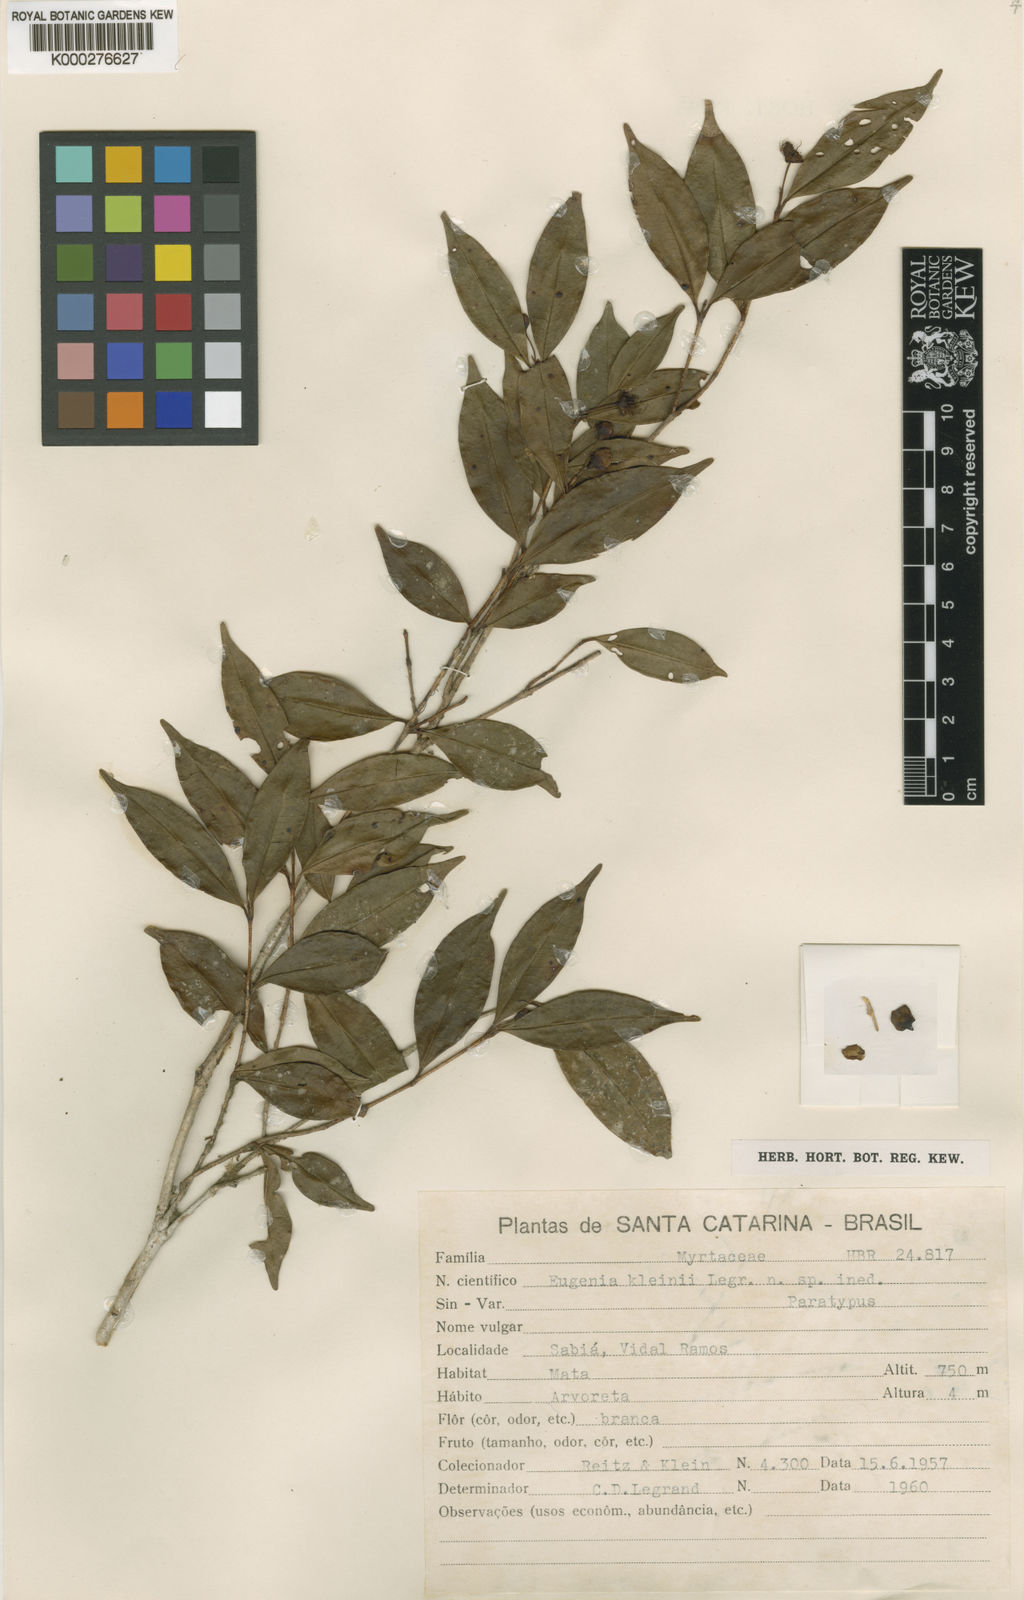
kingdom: Plantae
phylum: Tracheophyta
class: Magnoliopsida
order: Myrtales
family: Myrtaceae
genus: Eugenia
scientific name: Eugenia kleinii
